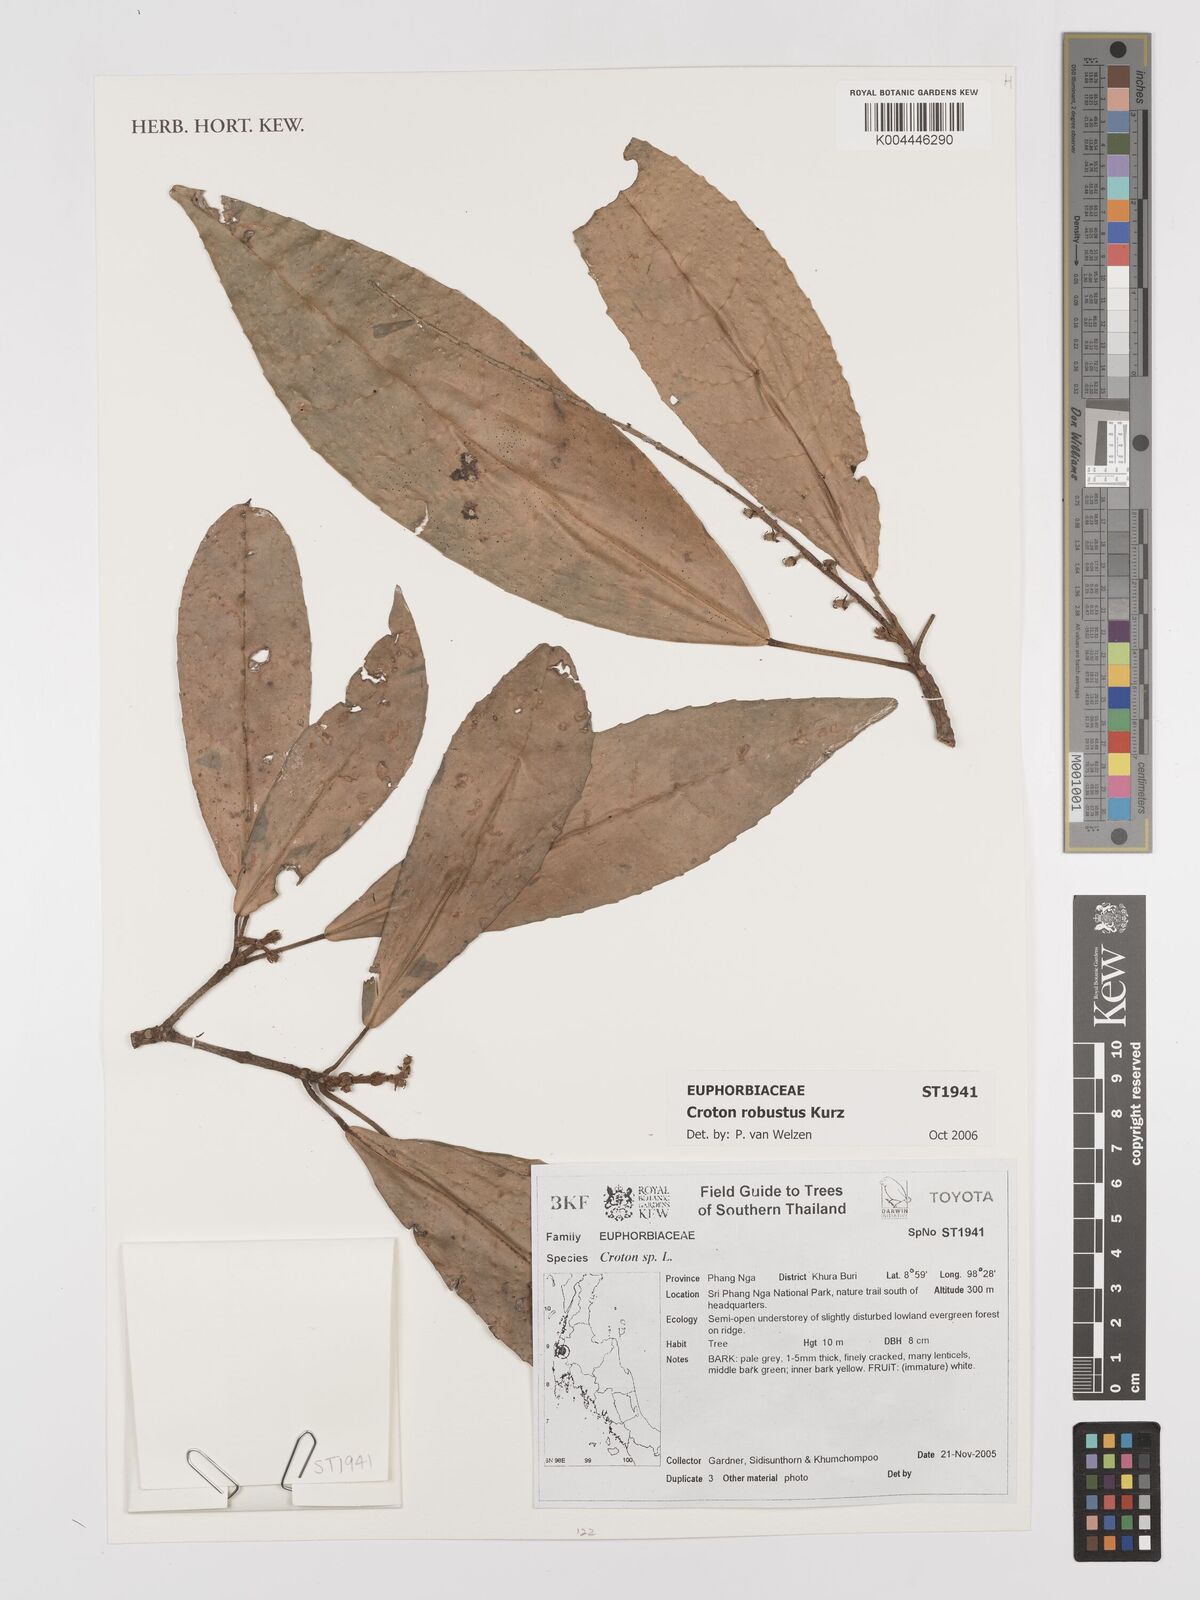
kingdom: Plantae
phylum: Tracheophyta
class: Magnoliopsida
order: Malpighiales
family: Euphorbiaceae
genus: Croton
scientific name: Croton robustus
